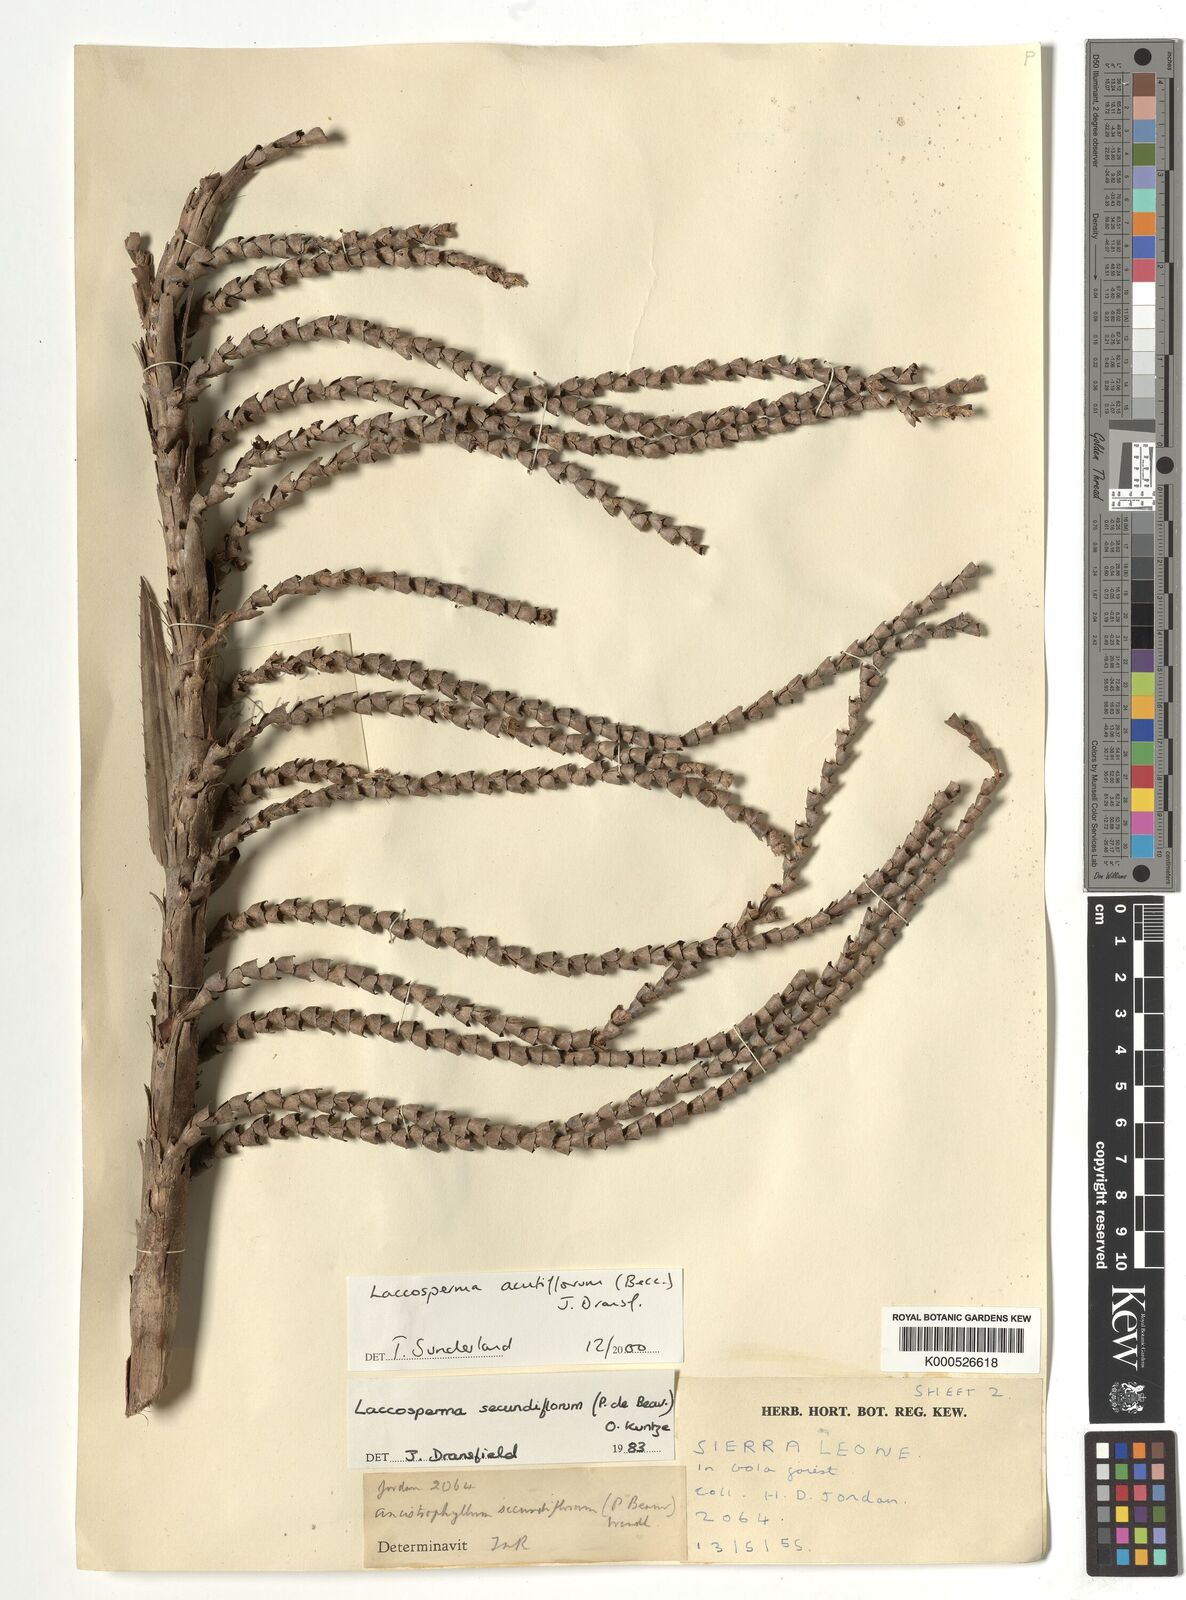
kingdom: Plantae
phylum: Tracheophyta
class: Liliopsida
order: Arecales
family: Arecaceae
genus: Laccosperma
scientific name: Laccosperma acutiflorum
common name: Rattan
